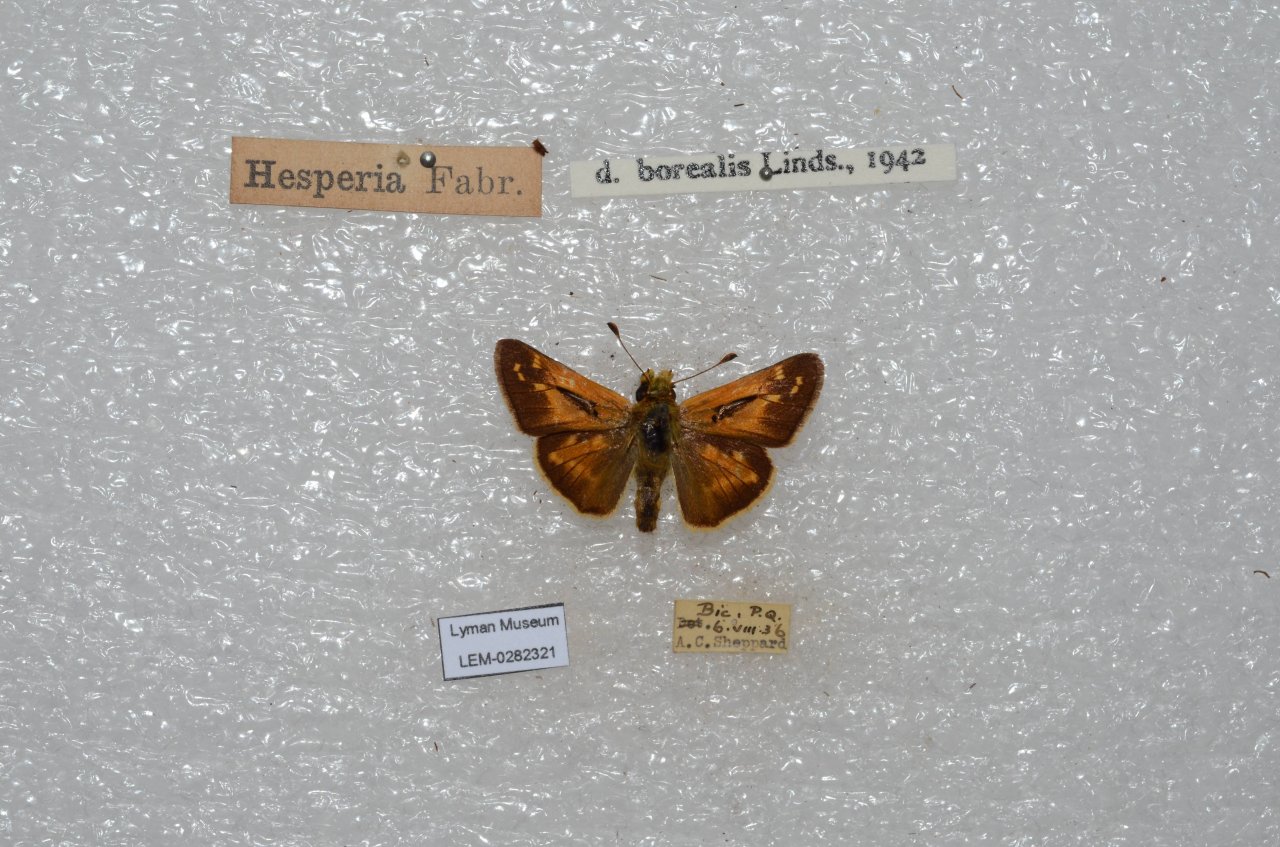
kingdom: Animalia
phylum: Arthropoda
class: Insecta
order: Lepidoptera
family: Hesperiidae
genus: Hesperia
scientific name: Hesperia comma
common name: Common Branded Skipper
